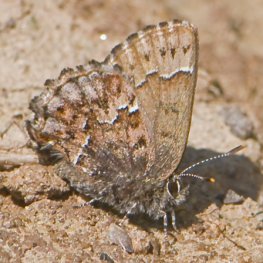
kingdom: Animalia
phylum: Arthropoda
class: Insecta
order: Lepidoptera
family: Lycaenidae
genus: Incisalia
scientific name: Incisalia lanoraieensis
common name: Bog Elfin
